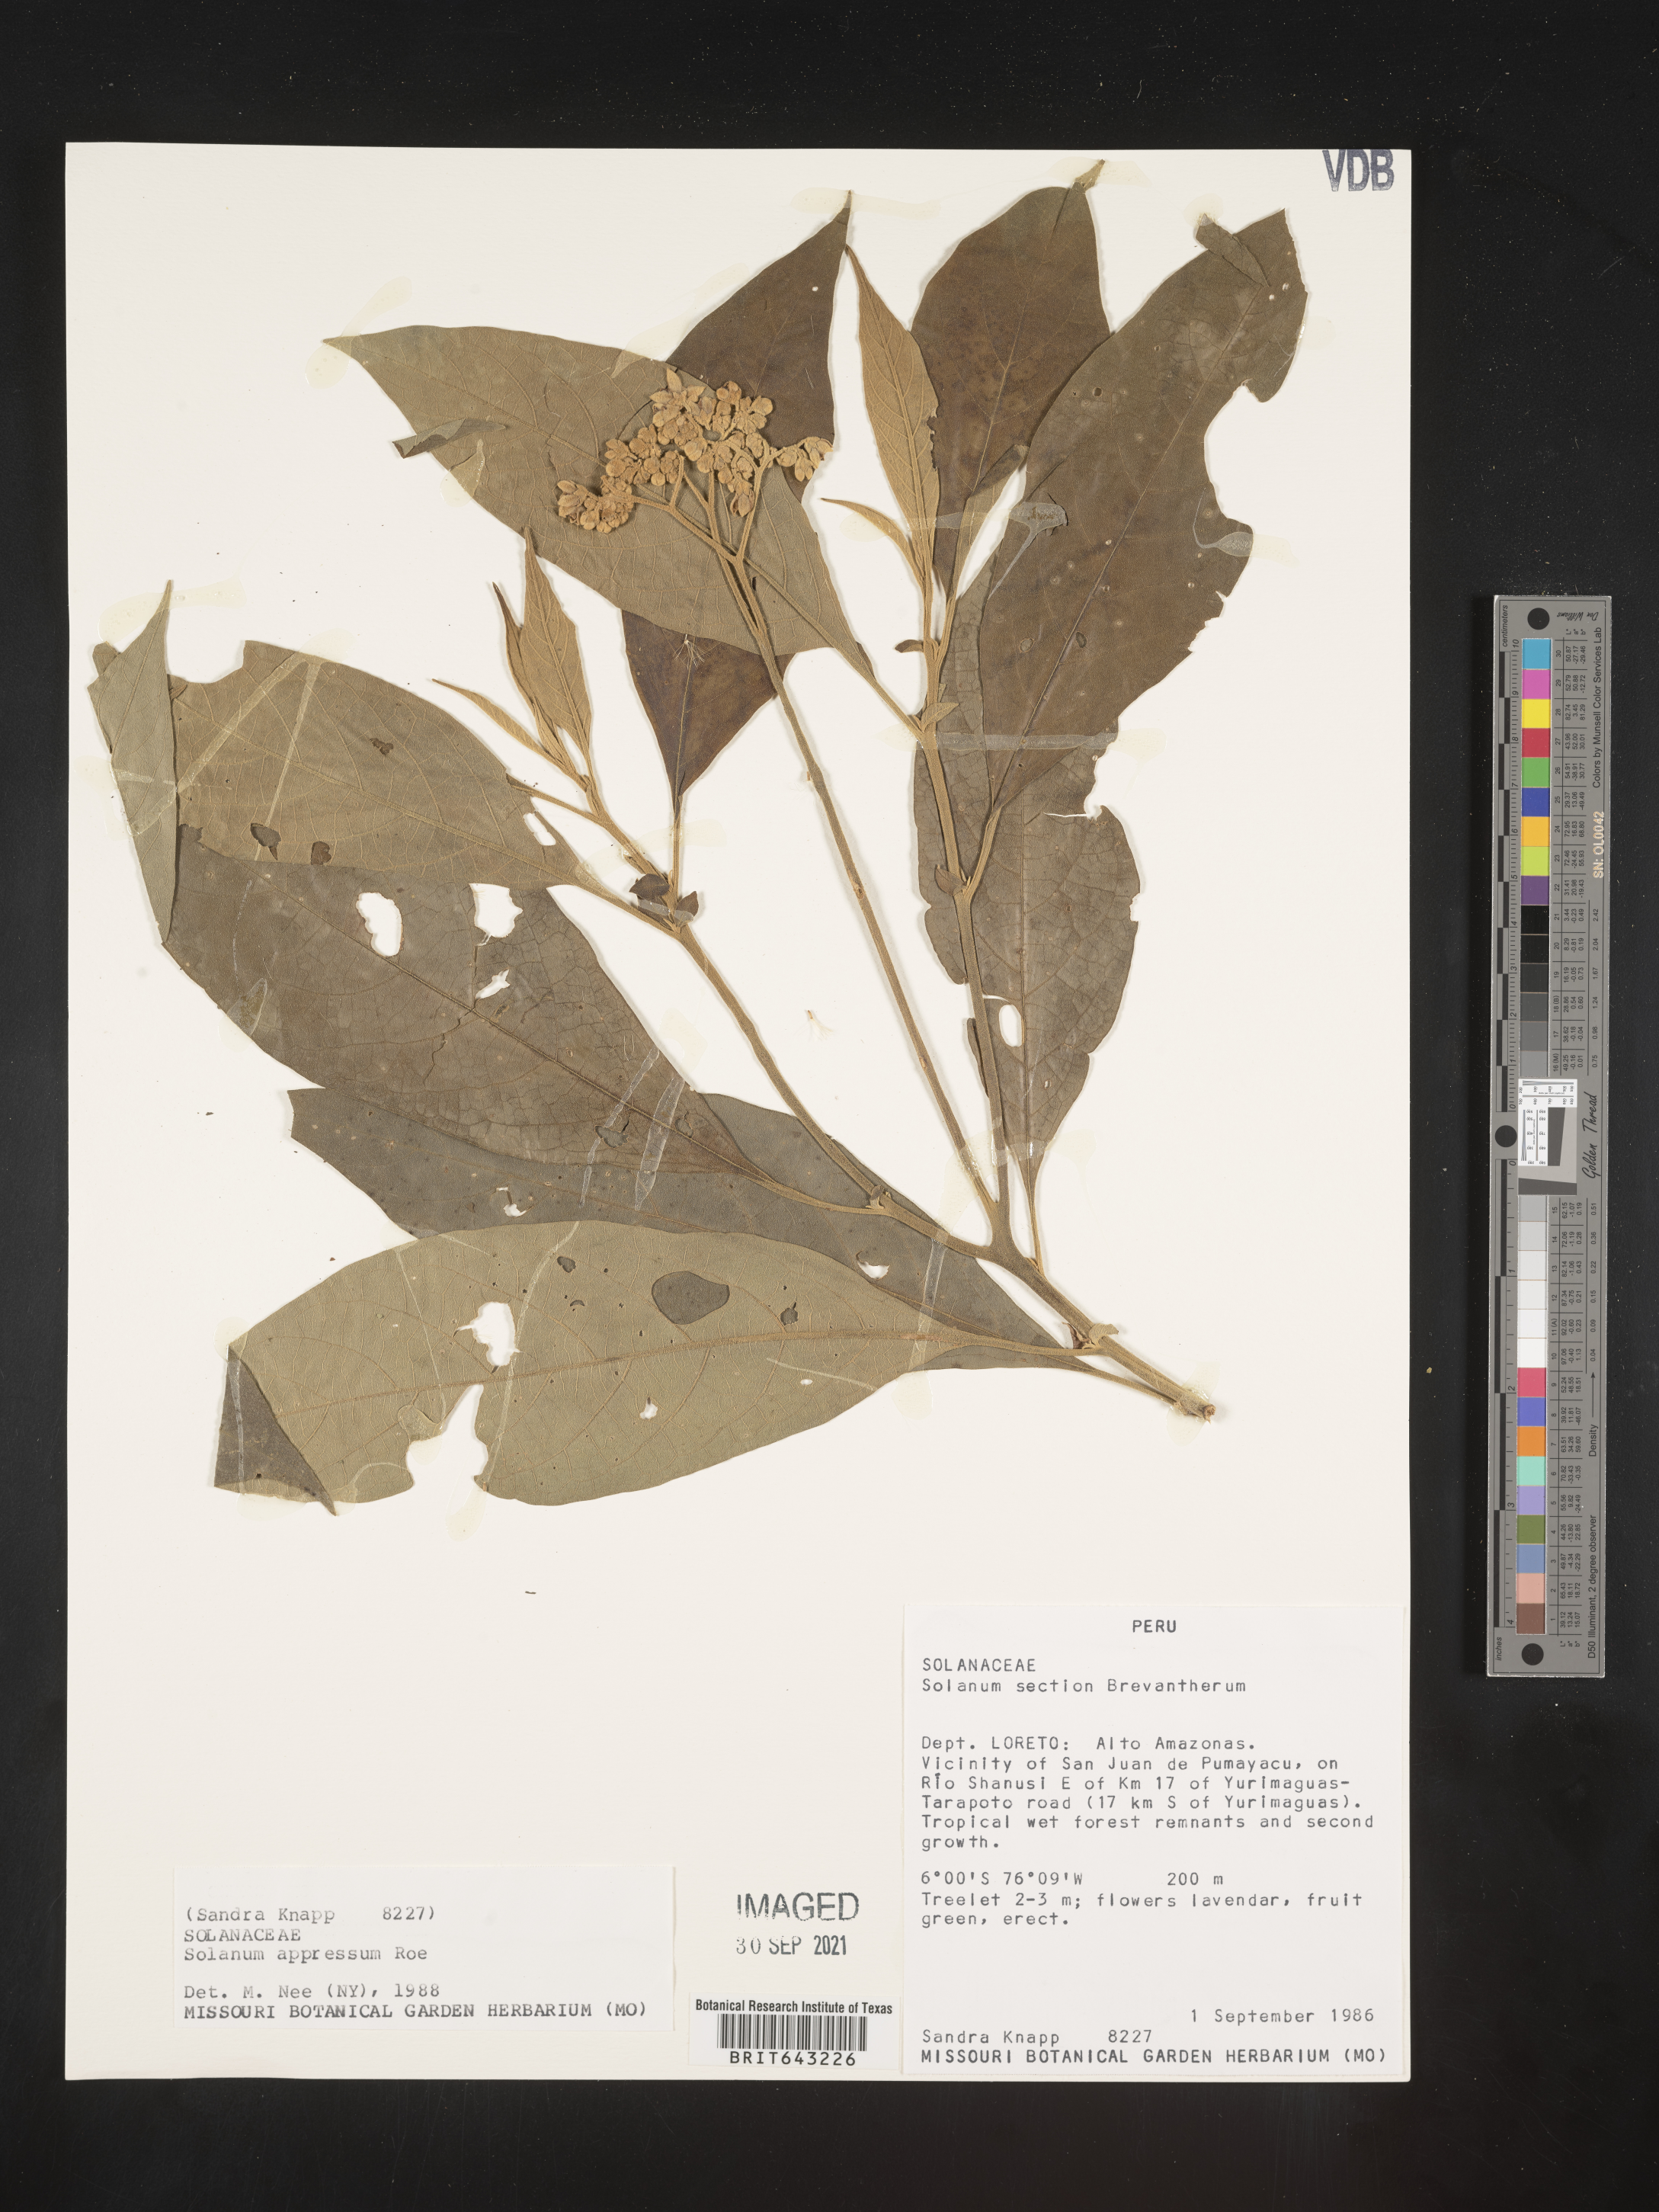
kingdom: Plantae
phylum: Tracheophyta
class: Magnoliopsida
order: Solanales
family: Solanaceae
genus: Solanum
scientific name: Solanum
